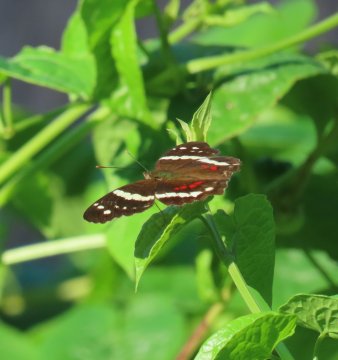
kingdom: Animalia
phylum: Arthropoda
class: Insecta
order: Lepidoptera
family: Nymphalidae
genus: Anartia
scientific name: Anartia fatima
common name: Banded Peacock
